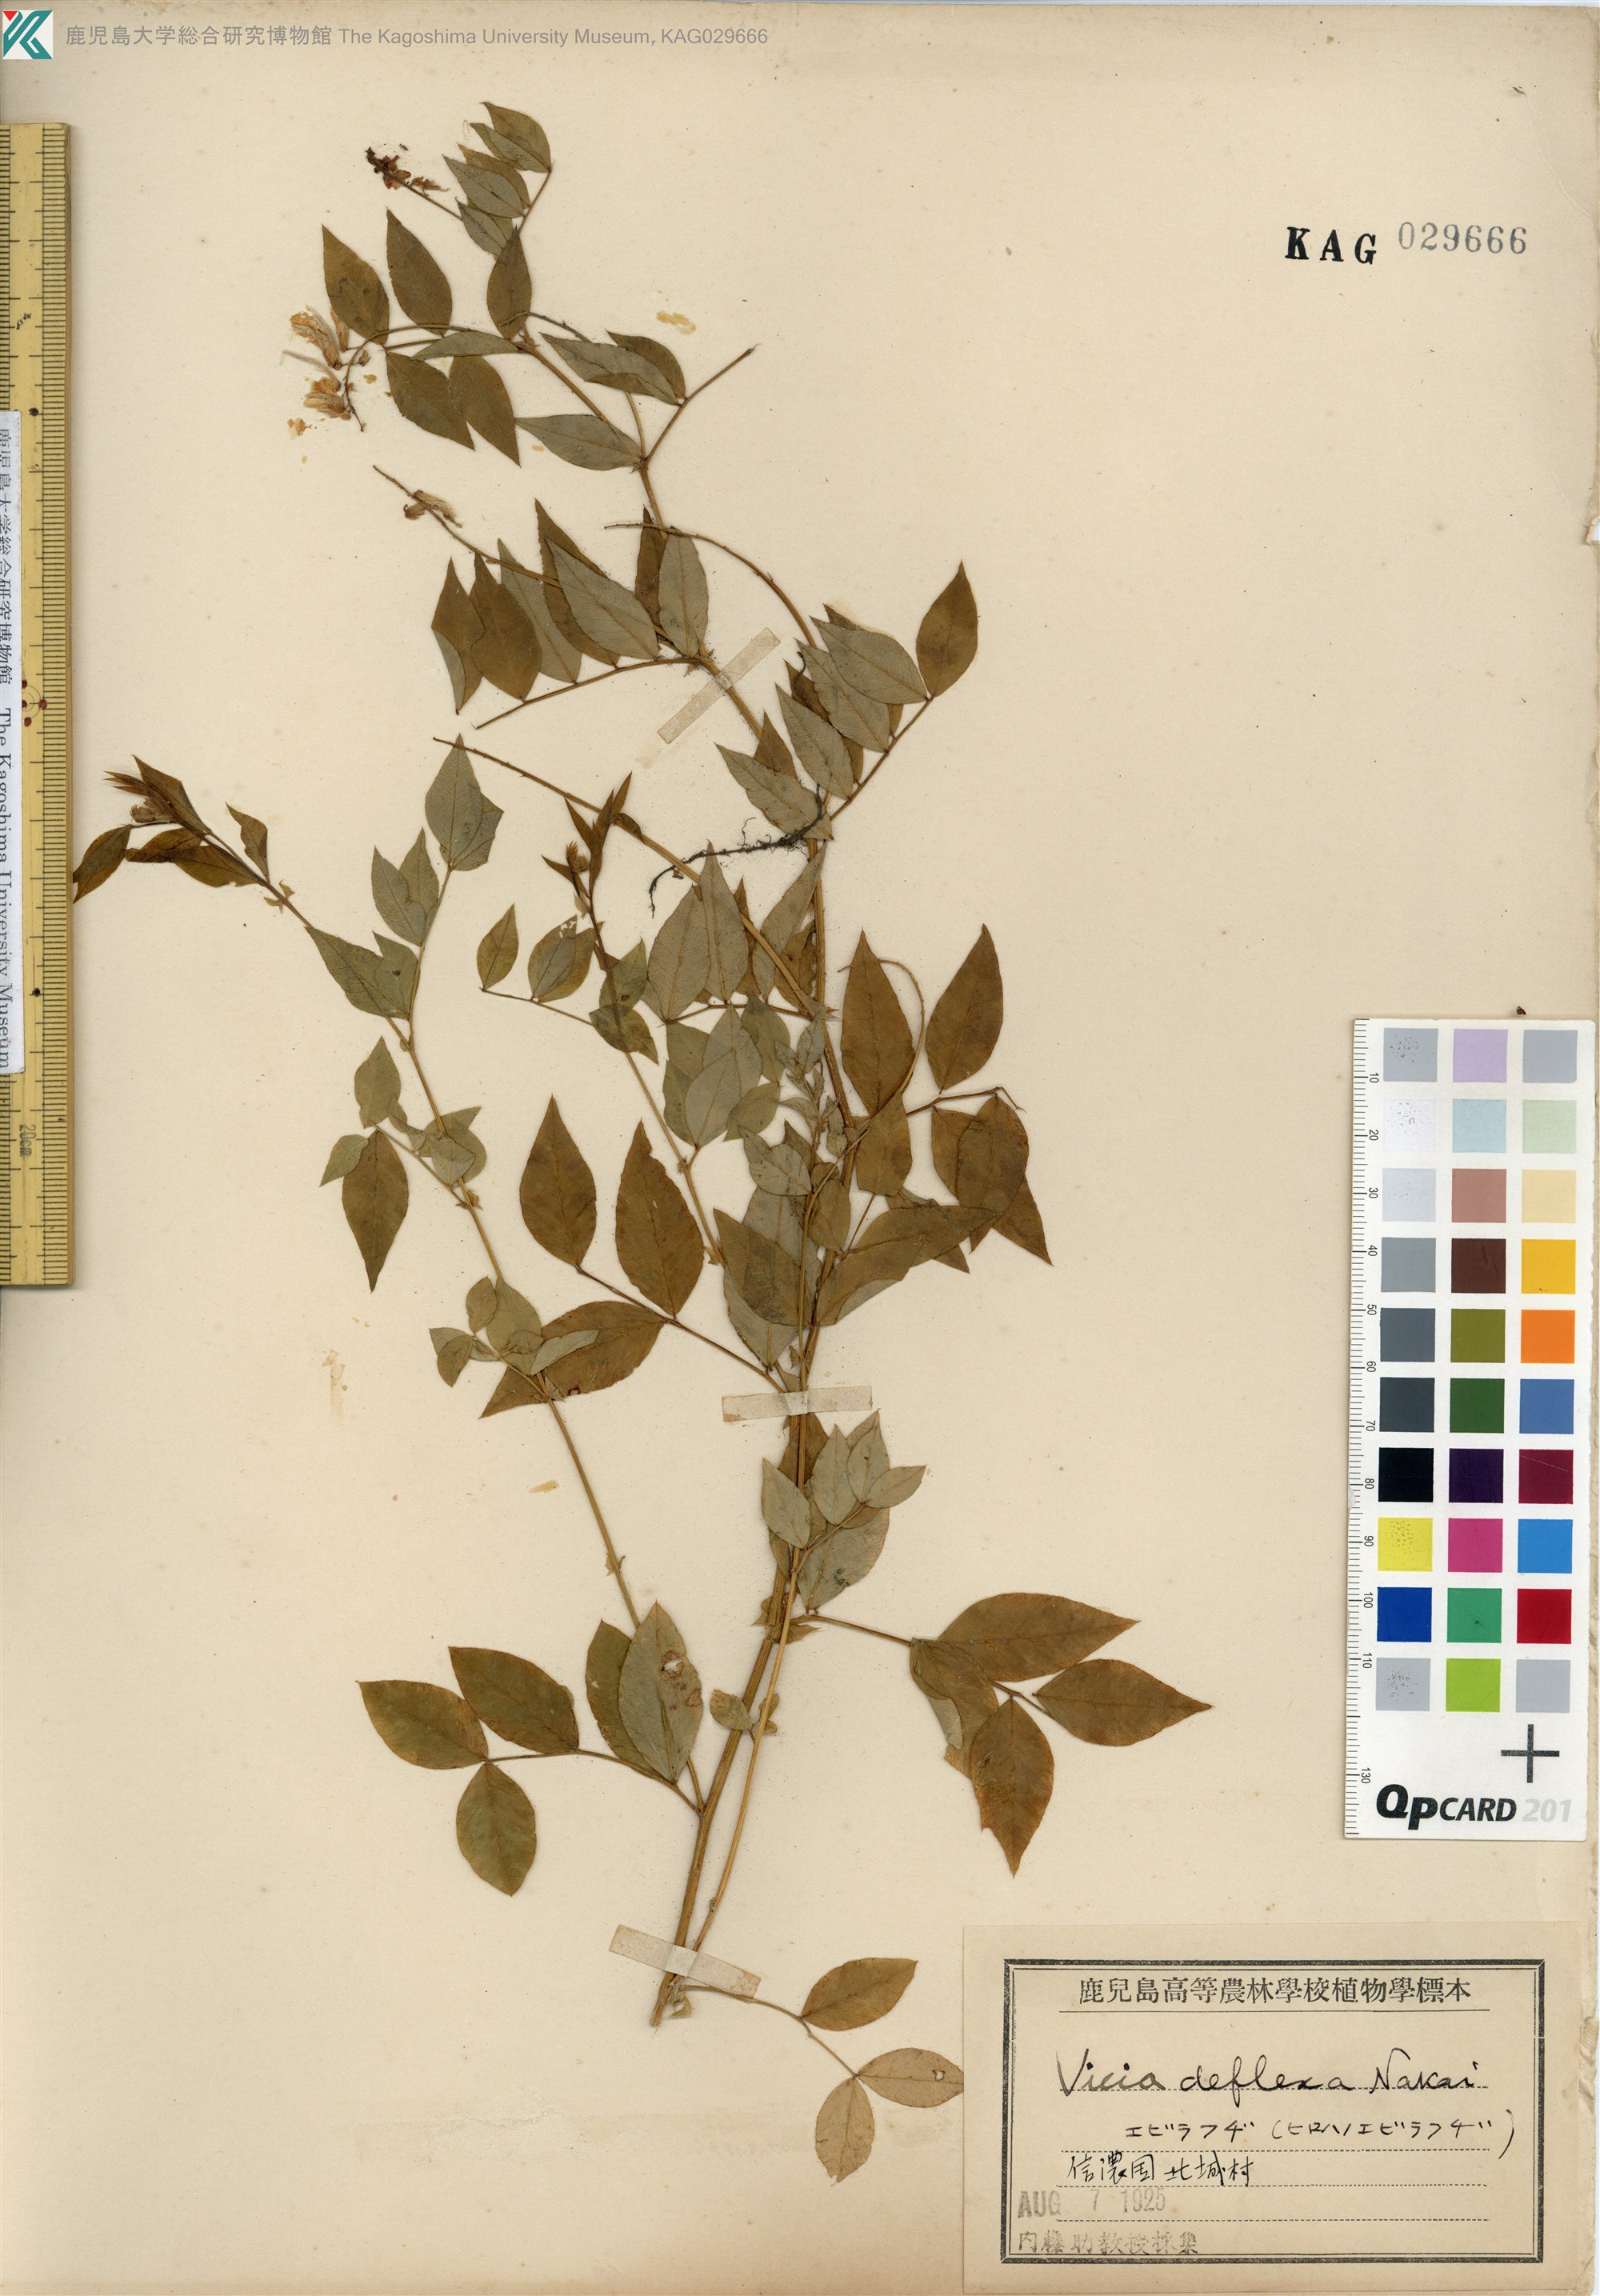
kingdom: Plantae
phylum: Tracheophyta
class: Magnoliopsida
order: Fabales
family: Fabaceae
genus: Vicia
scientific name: Vicia venosa
